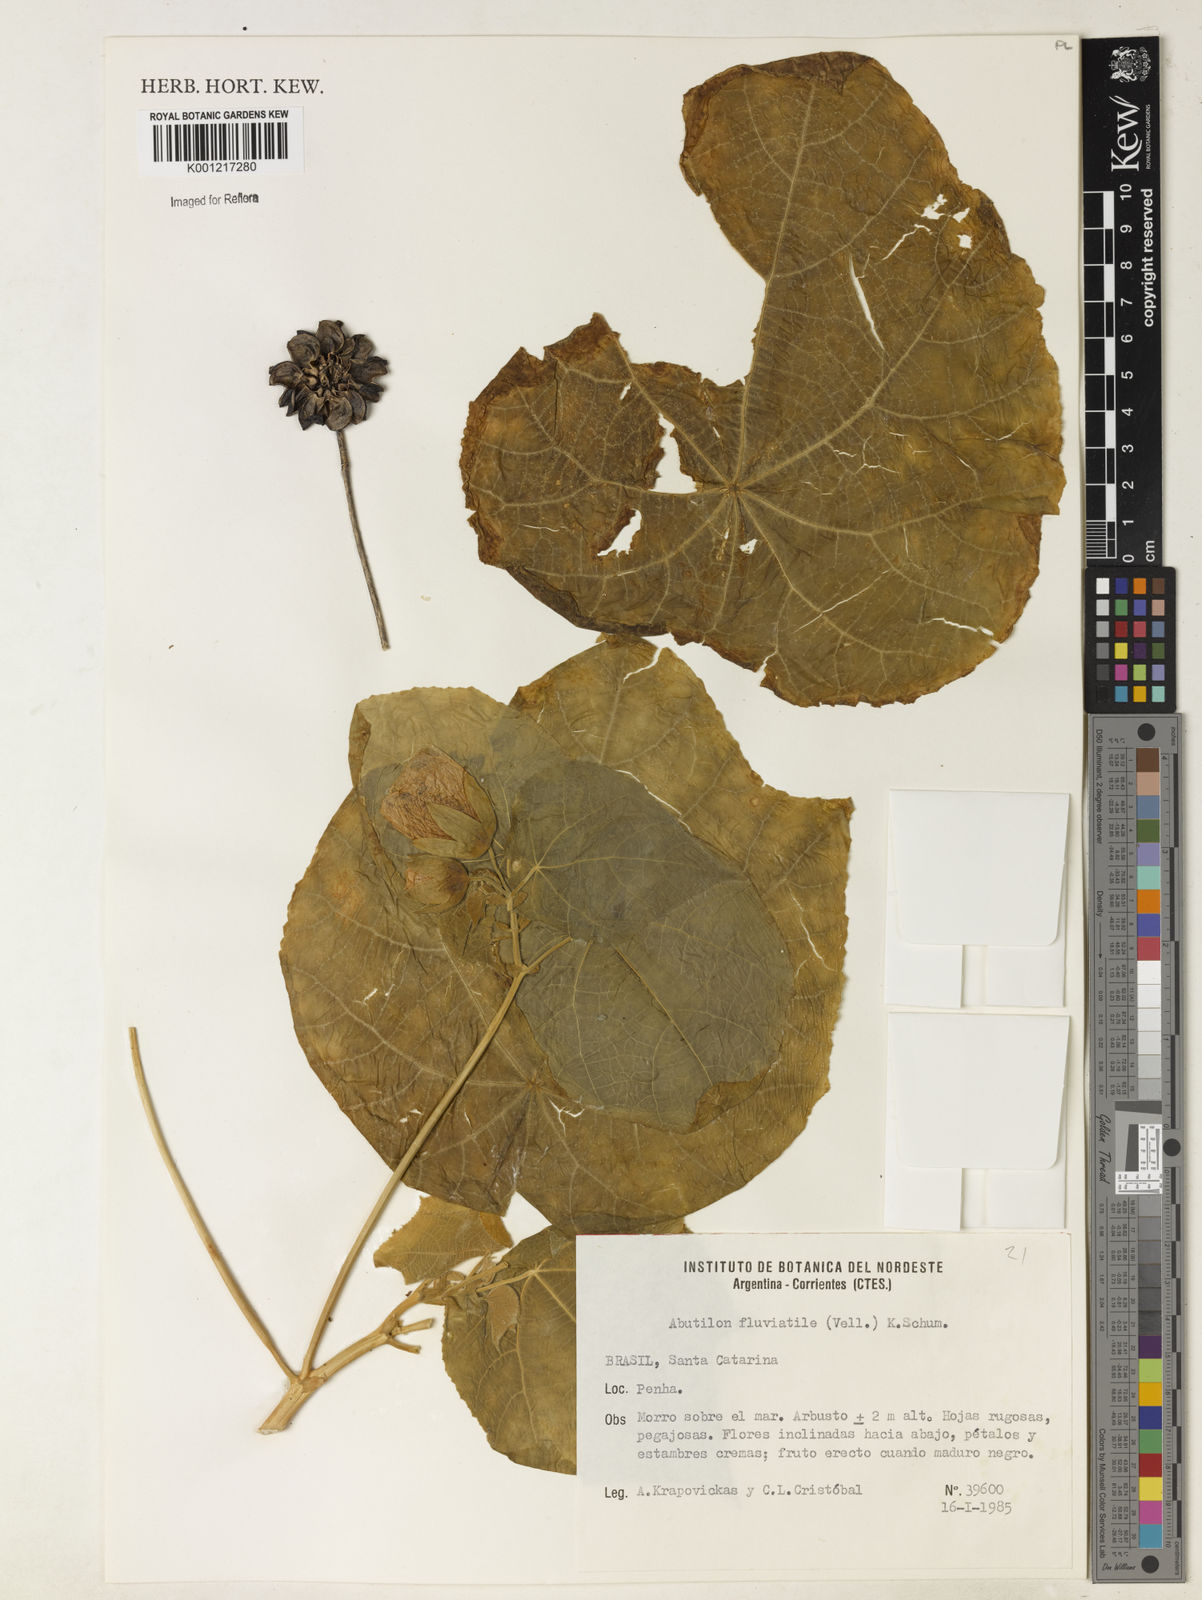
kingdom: Plantae
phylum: Tracheophyta
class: Magnoliopsida
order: Malvales
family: Malvaceae
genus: Callianthe
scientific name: Callianthe fluviatilis
